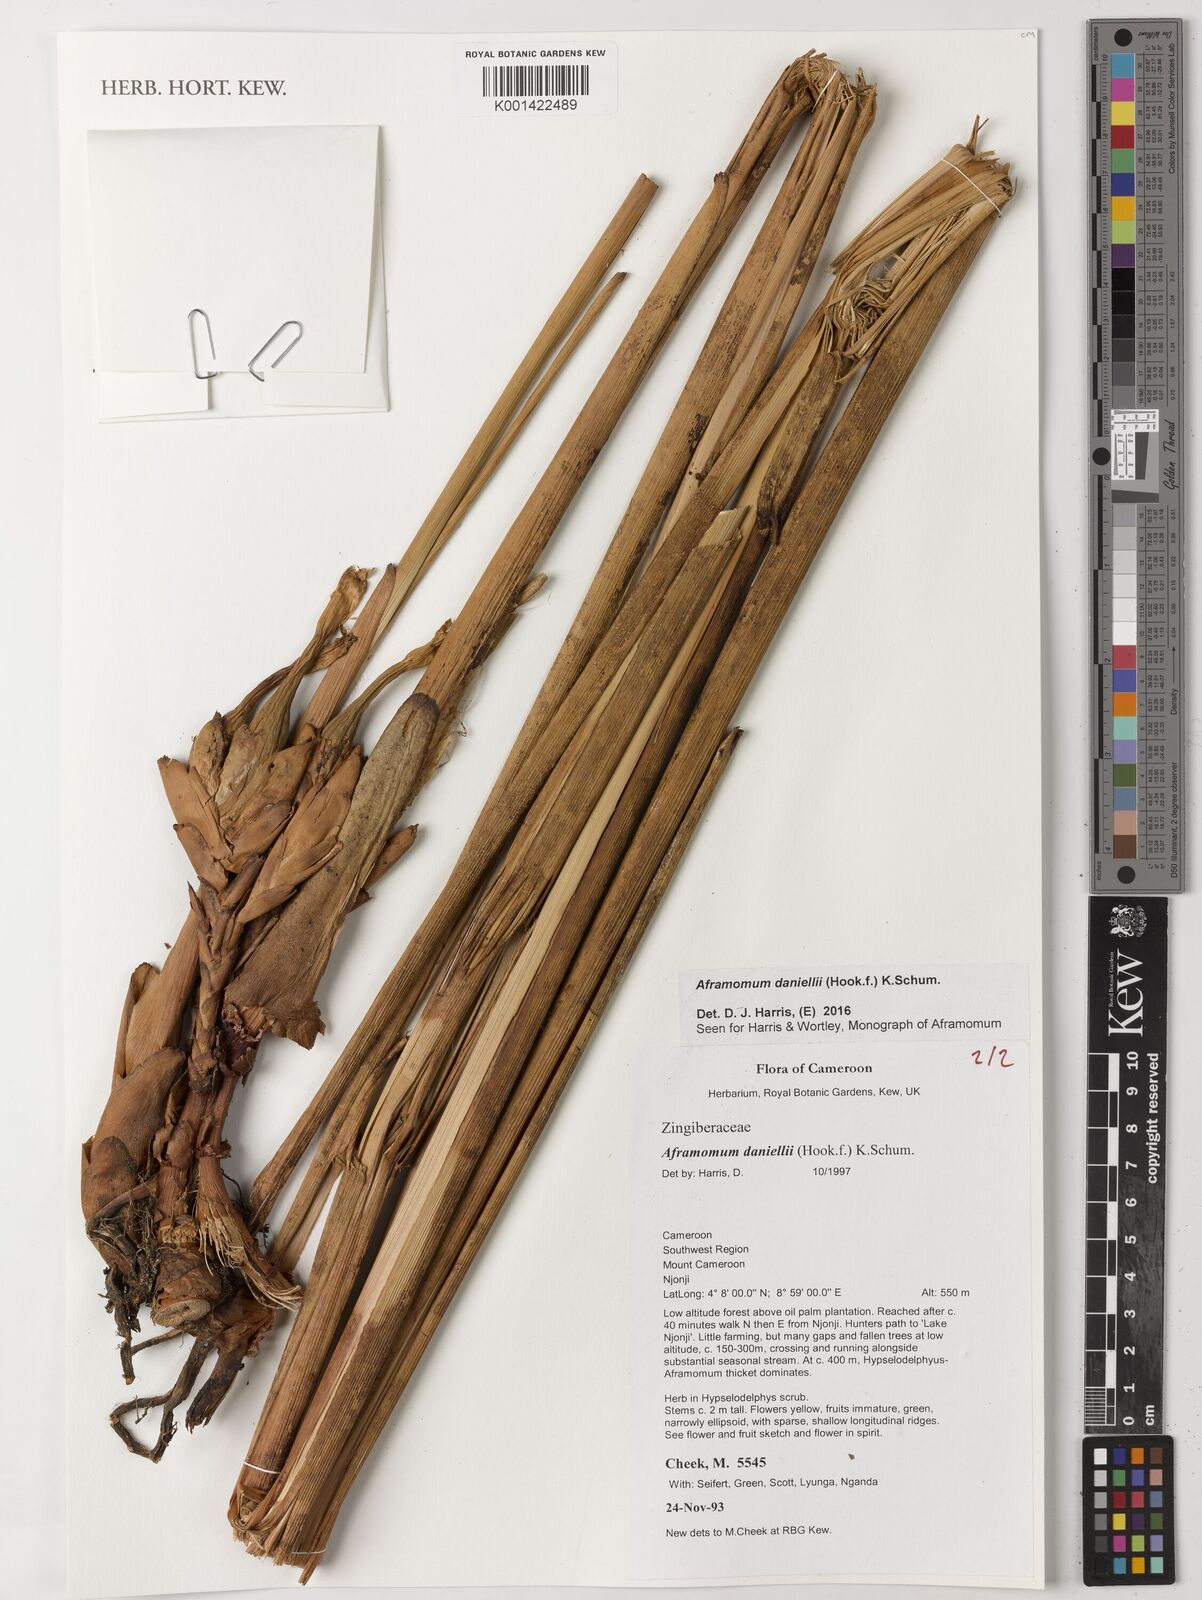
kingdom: Plantae
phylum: Tracheophyta
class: Liliopsida
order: Zingiberales
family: Zingiberaceae
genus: Aframomum
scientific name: Aframomum daniellii
